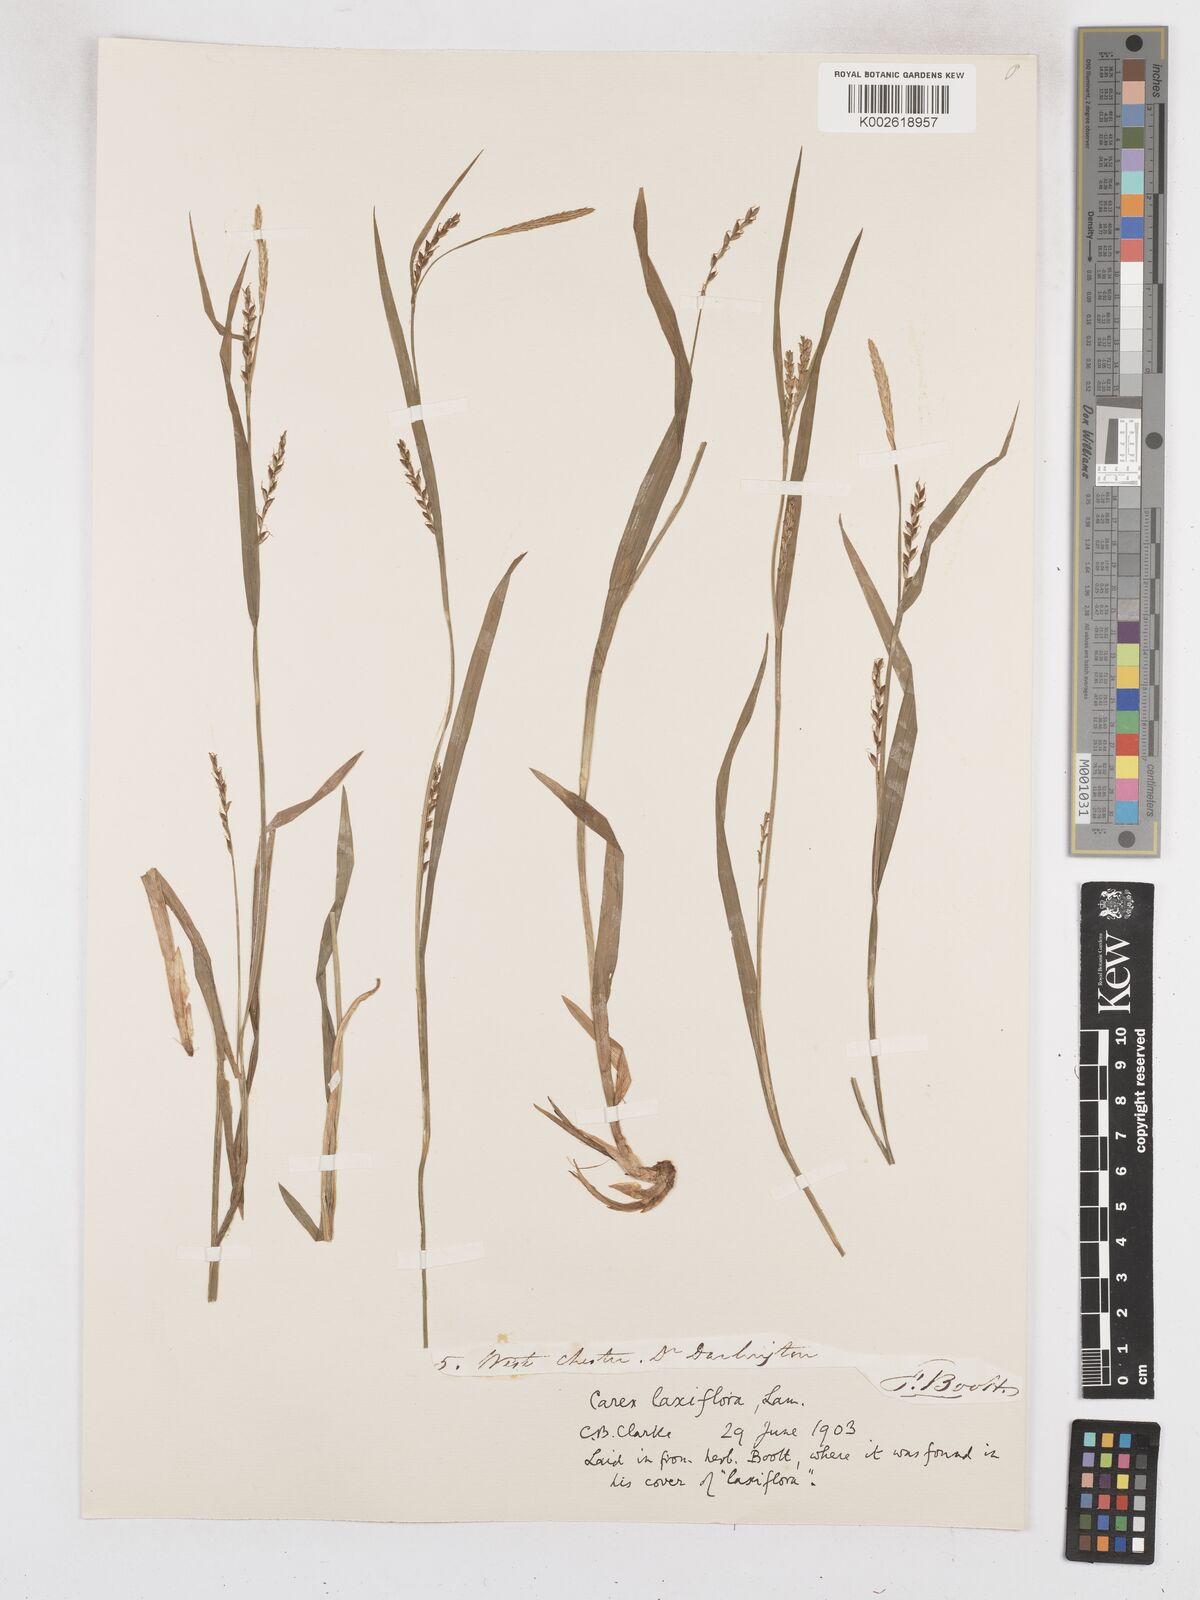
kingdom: Plantae
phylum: Tracheophyta
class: Liliopsida
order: Poales
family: Cyperaceae
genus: Carex
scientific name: Carex laxiflora
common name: Beech wood sedge
